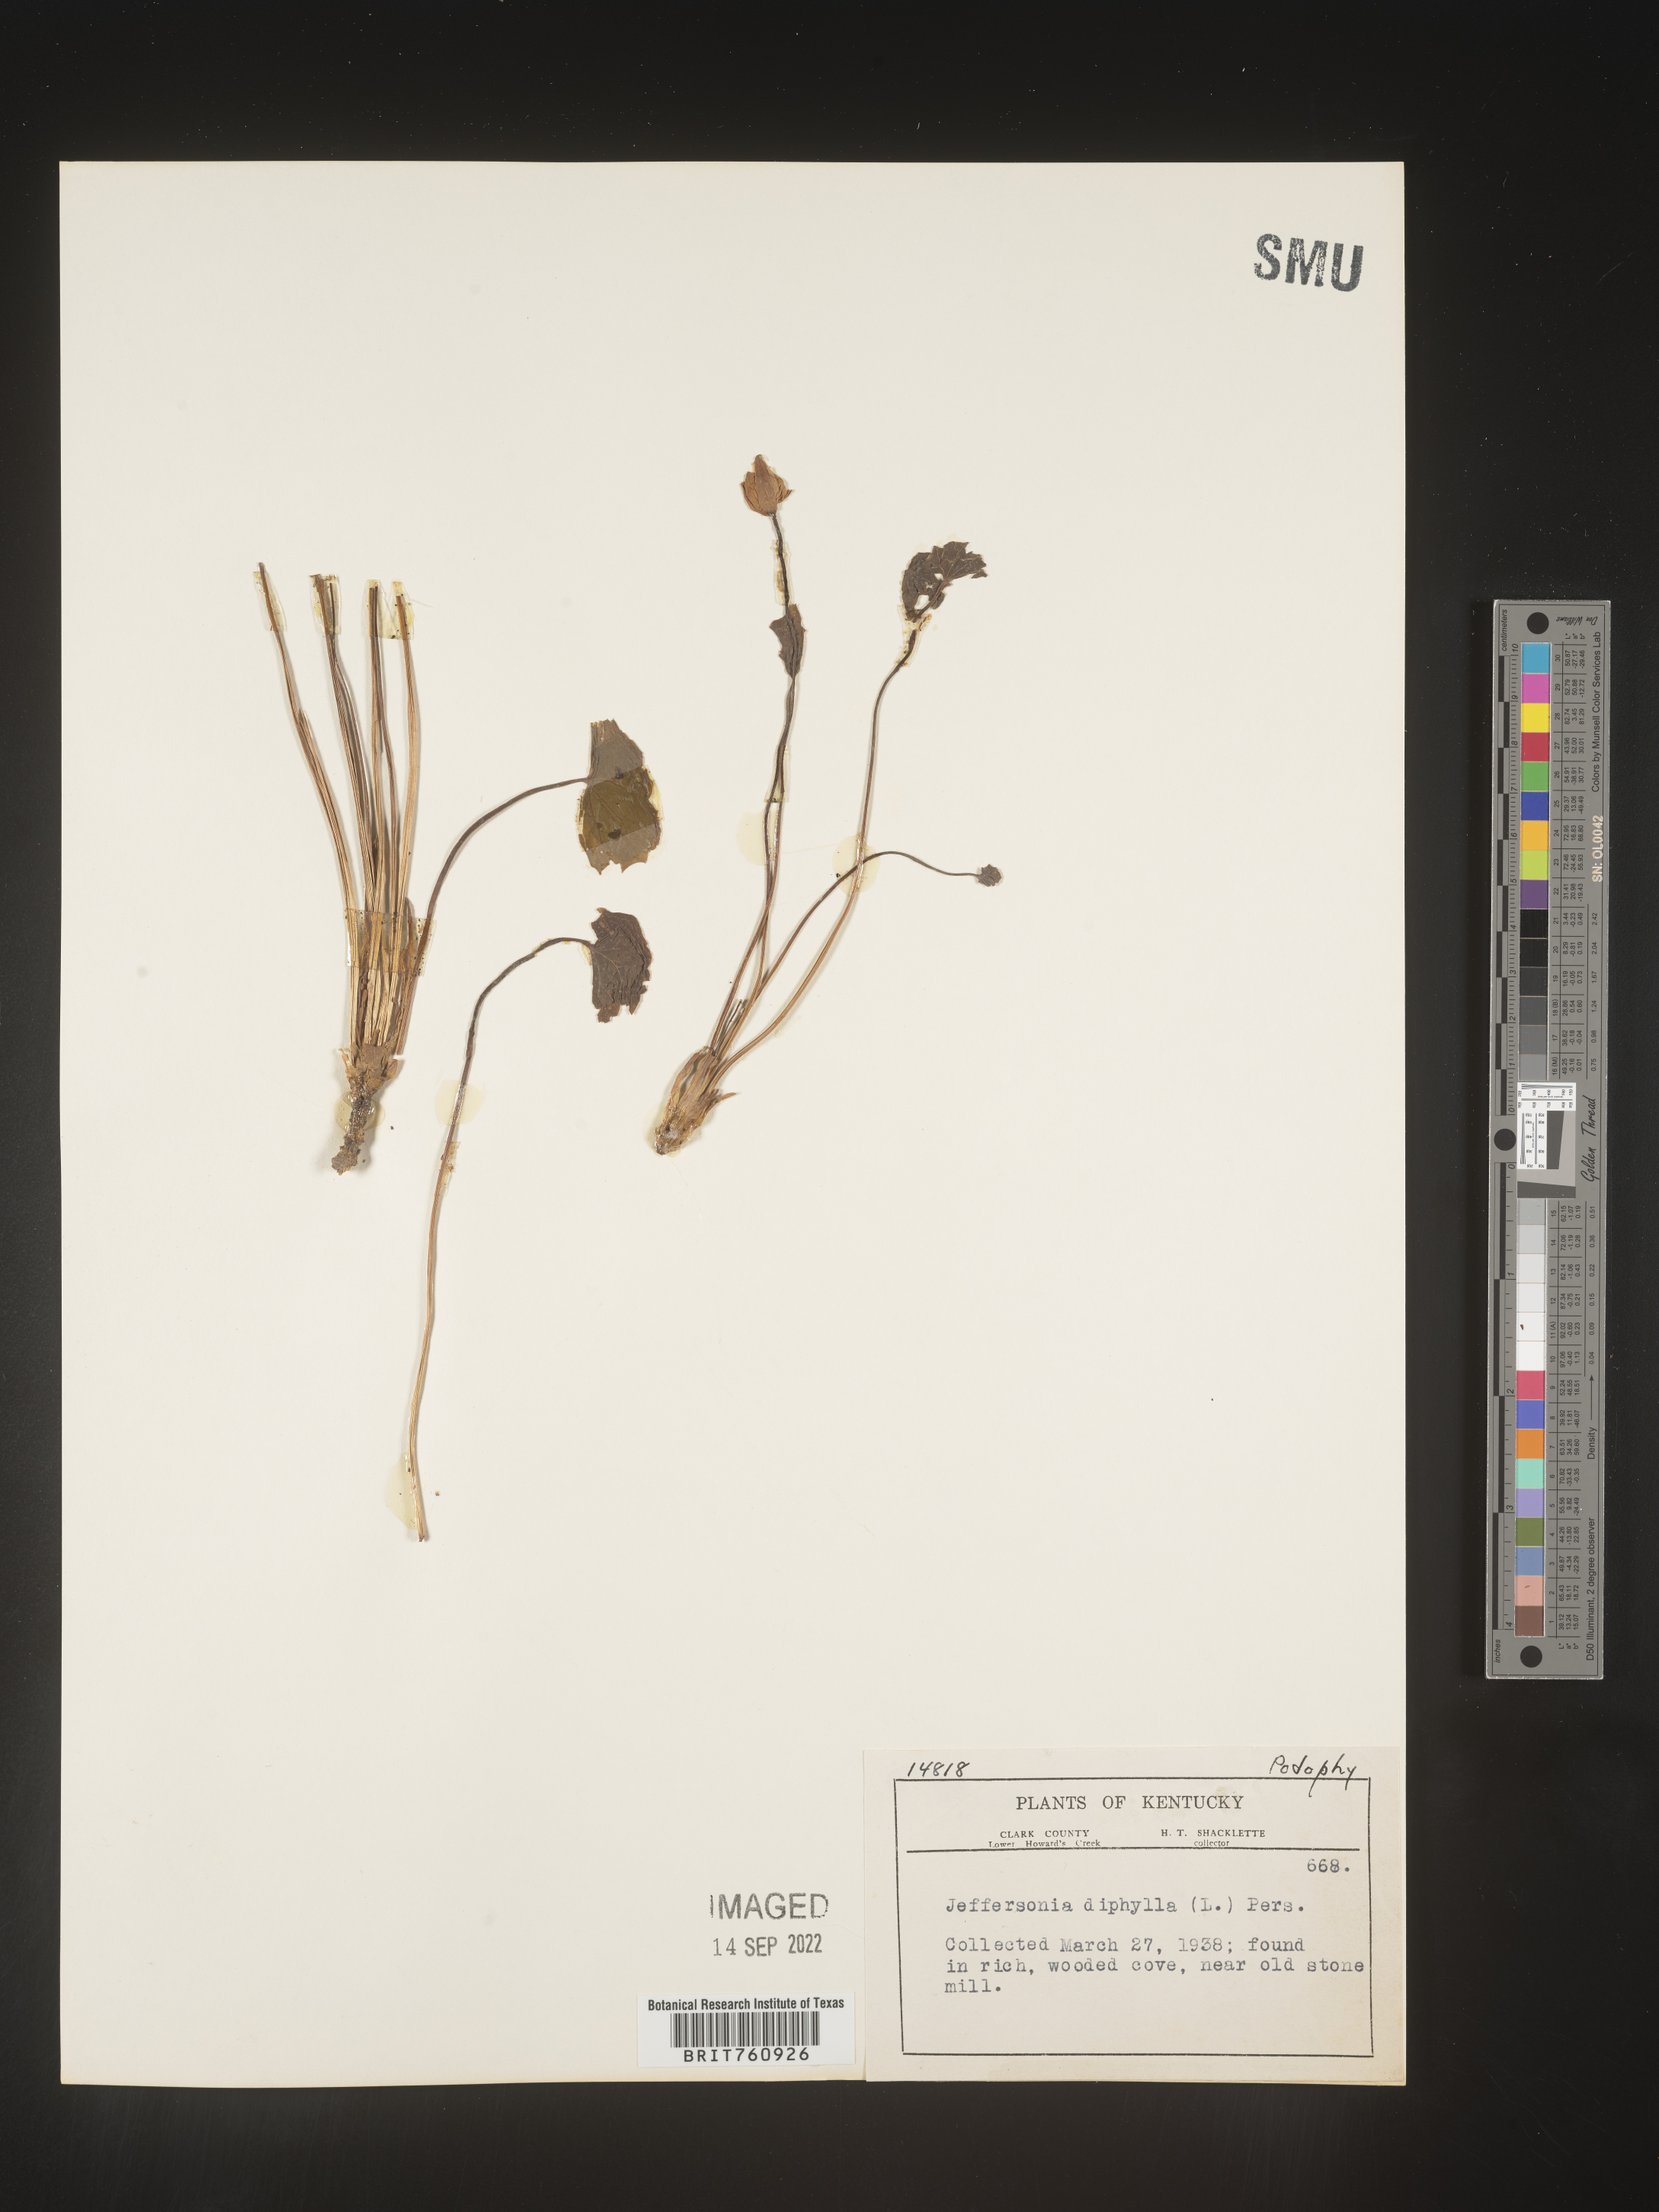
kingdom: Plantae
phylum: Tracheophyta
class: Magnoliopsida
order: Ranunculales
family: Berberidaceae
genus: Jeffersonia
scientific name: Jeffersonia
